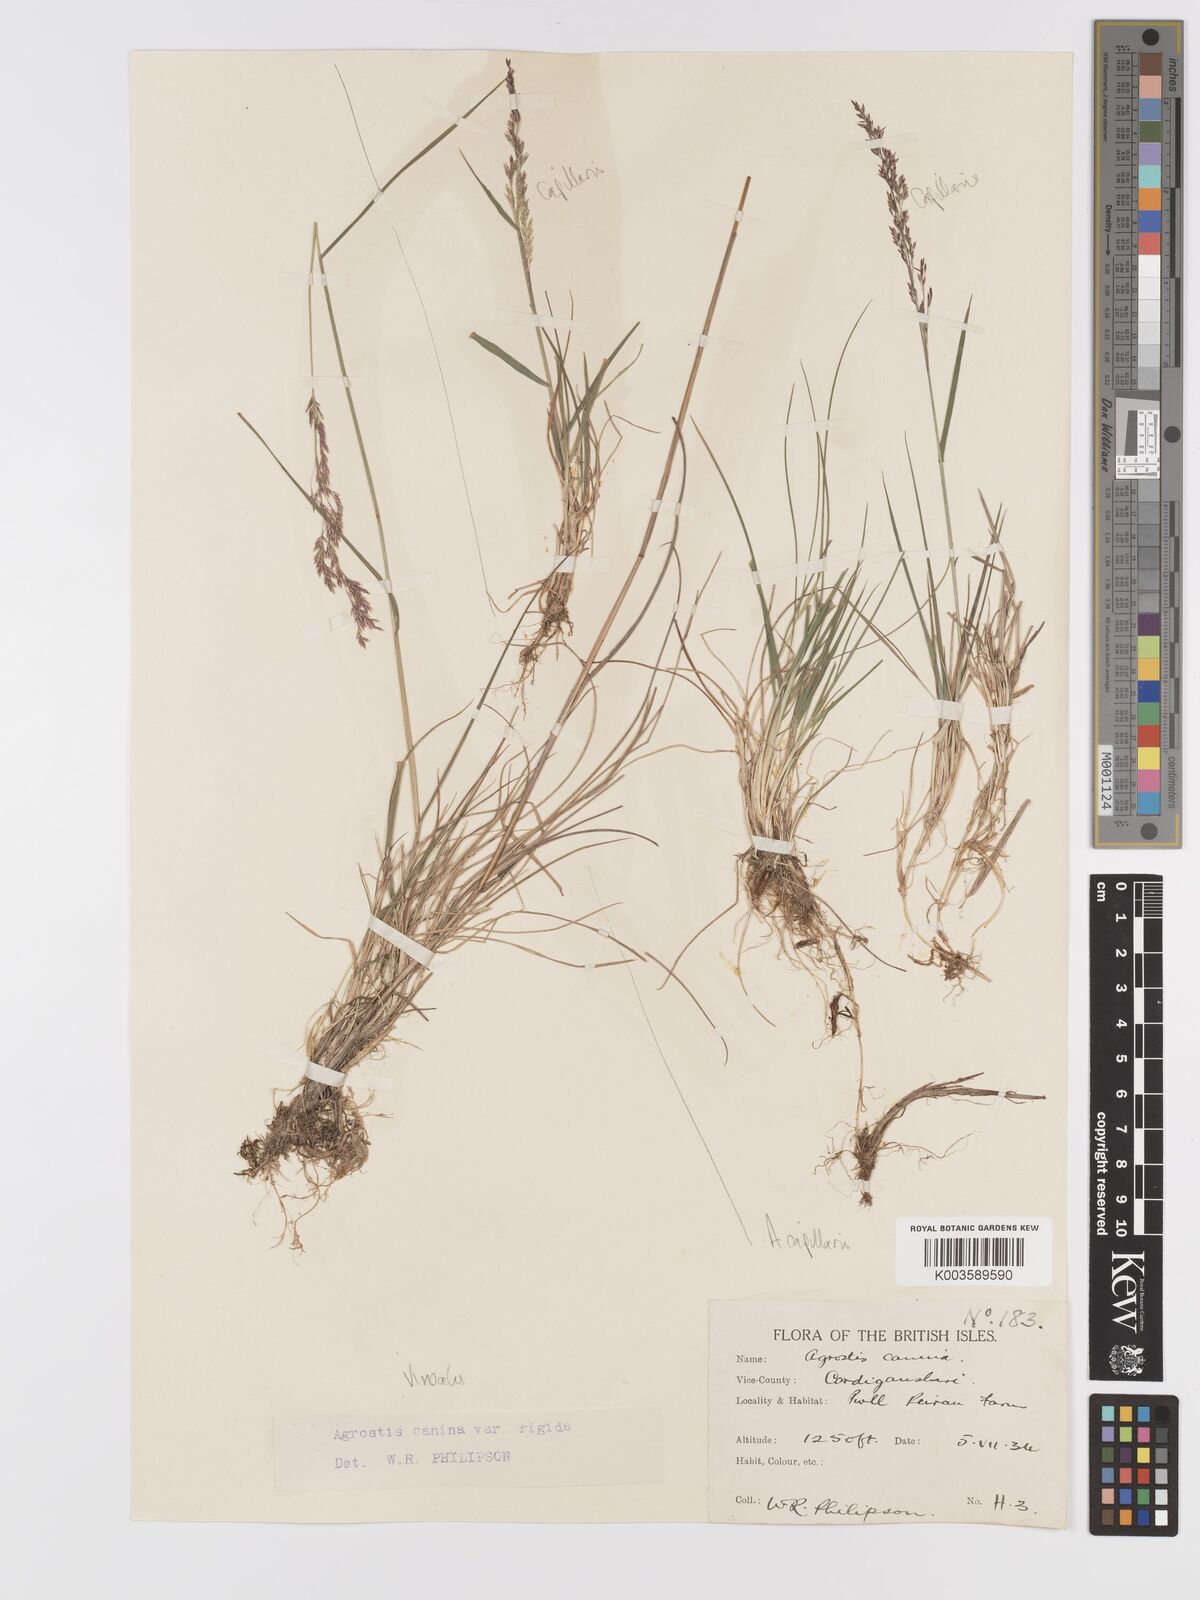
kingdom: Plantae
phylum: Tracheophyta
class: Liliopsida
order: Poales
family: Poaceae
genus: Agrostis
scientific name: Agrostis
